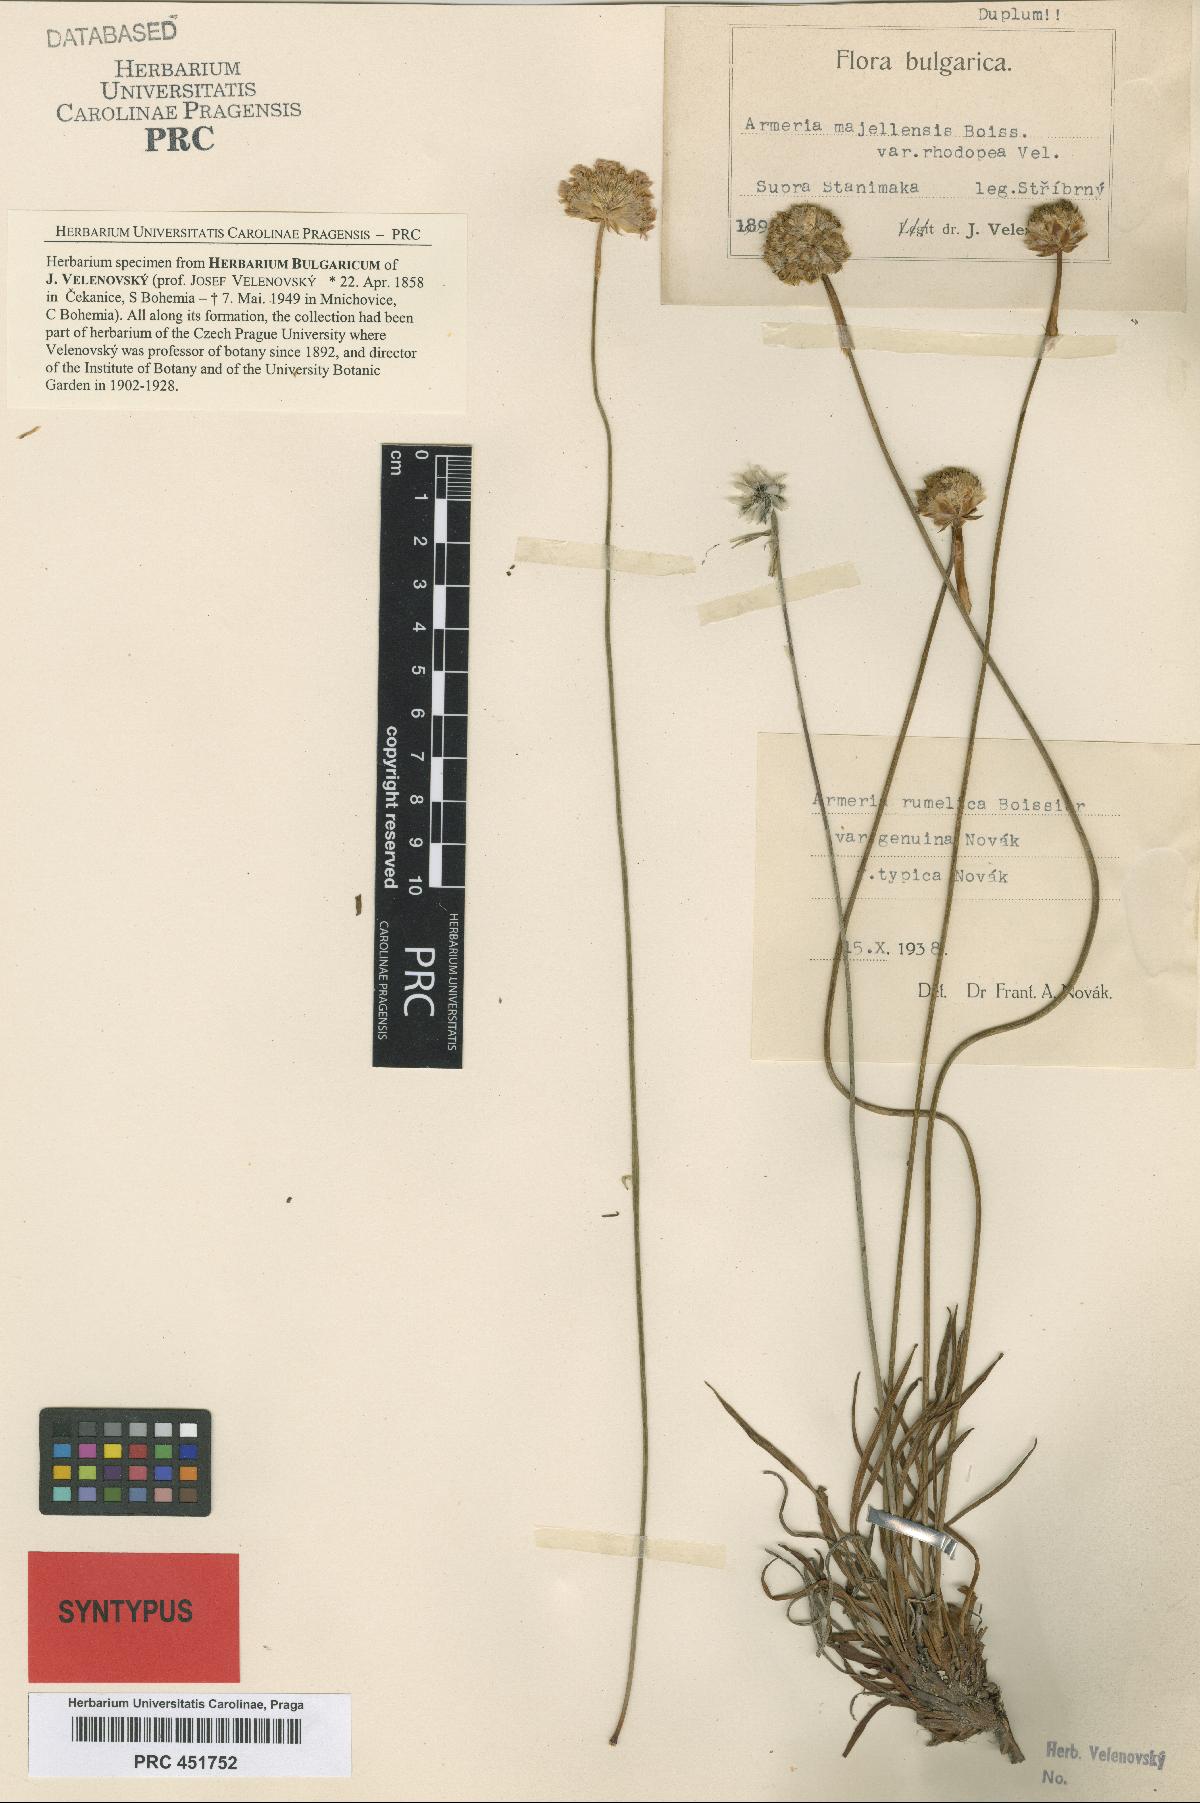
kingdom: Plantae
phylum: Tracheophyta
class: Magnoliopsida
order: Caryophyllales
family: Plumbaginaceae
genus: Armeria
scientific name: Armeria rumelica
